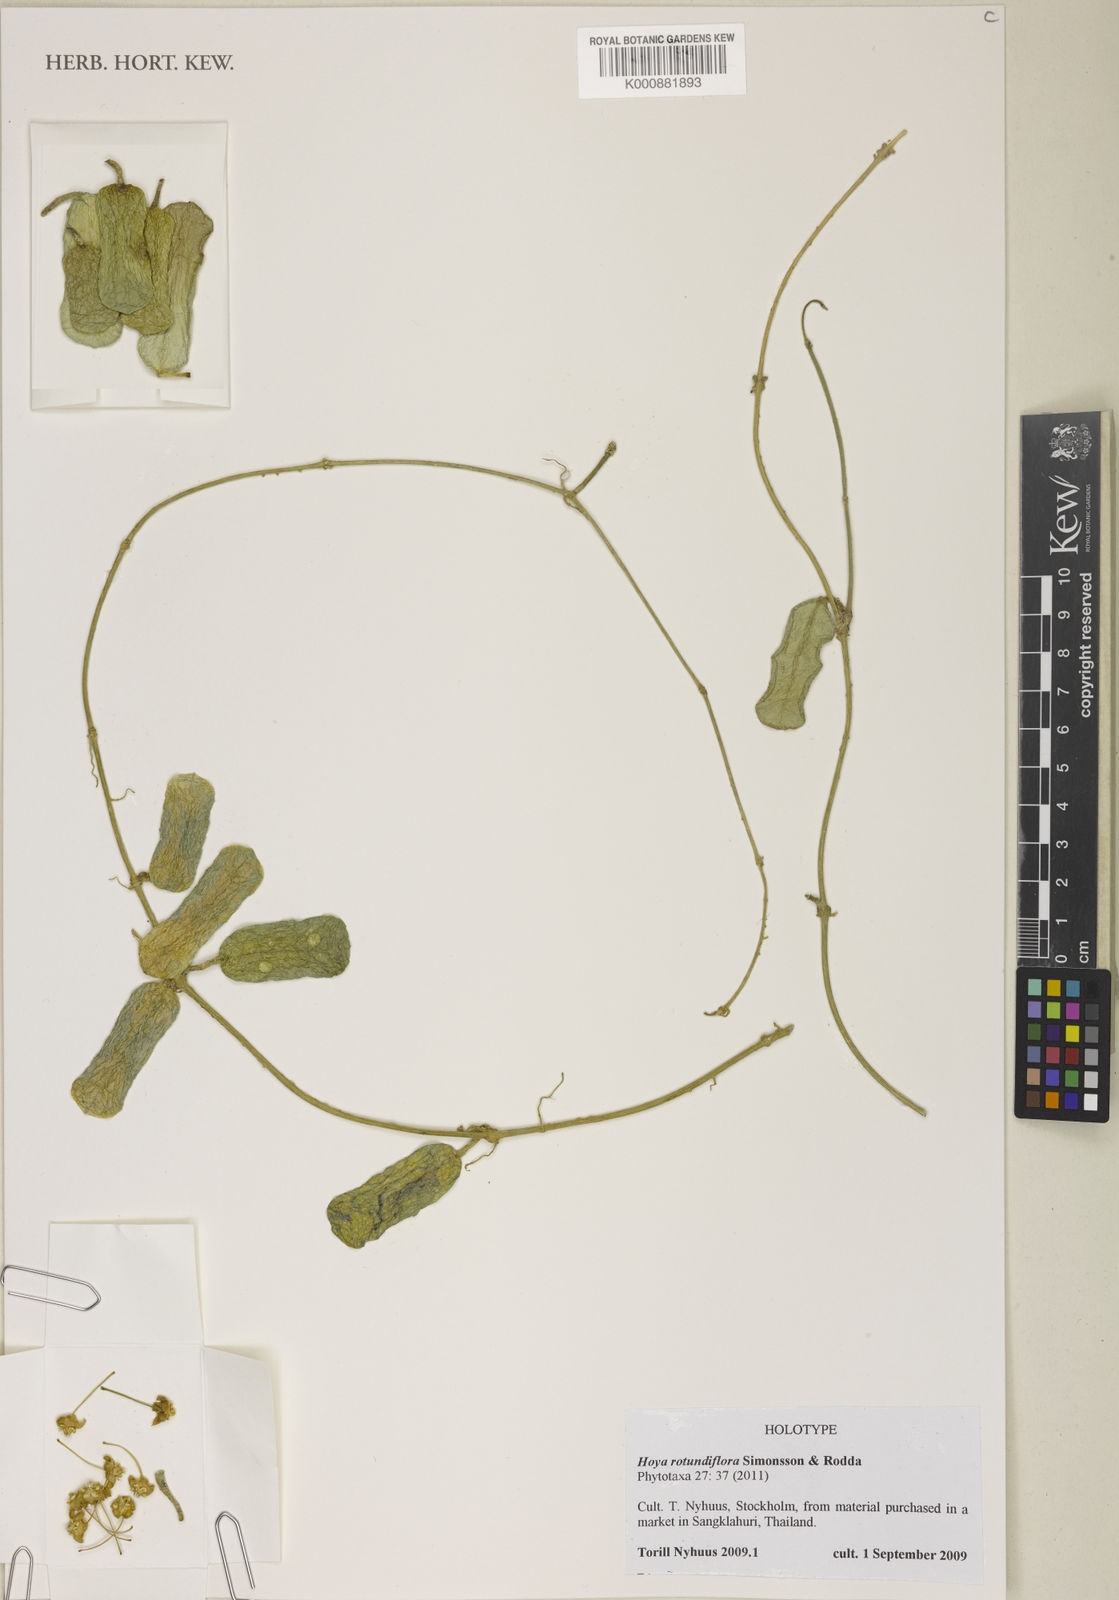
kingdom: Plantae
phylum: Tracheophyta
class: Magnoliopsida
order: Gentianales
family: Apocynaceae
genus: Hoya
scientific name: Hoya rotundiflora
